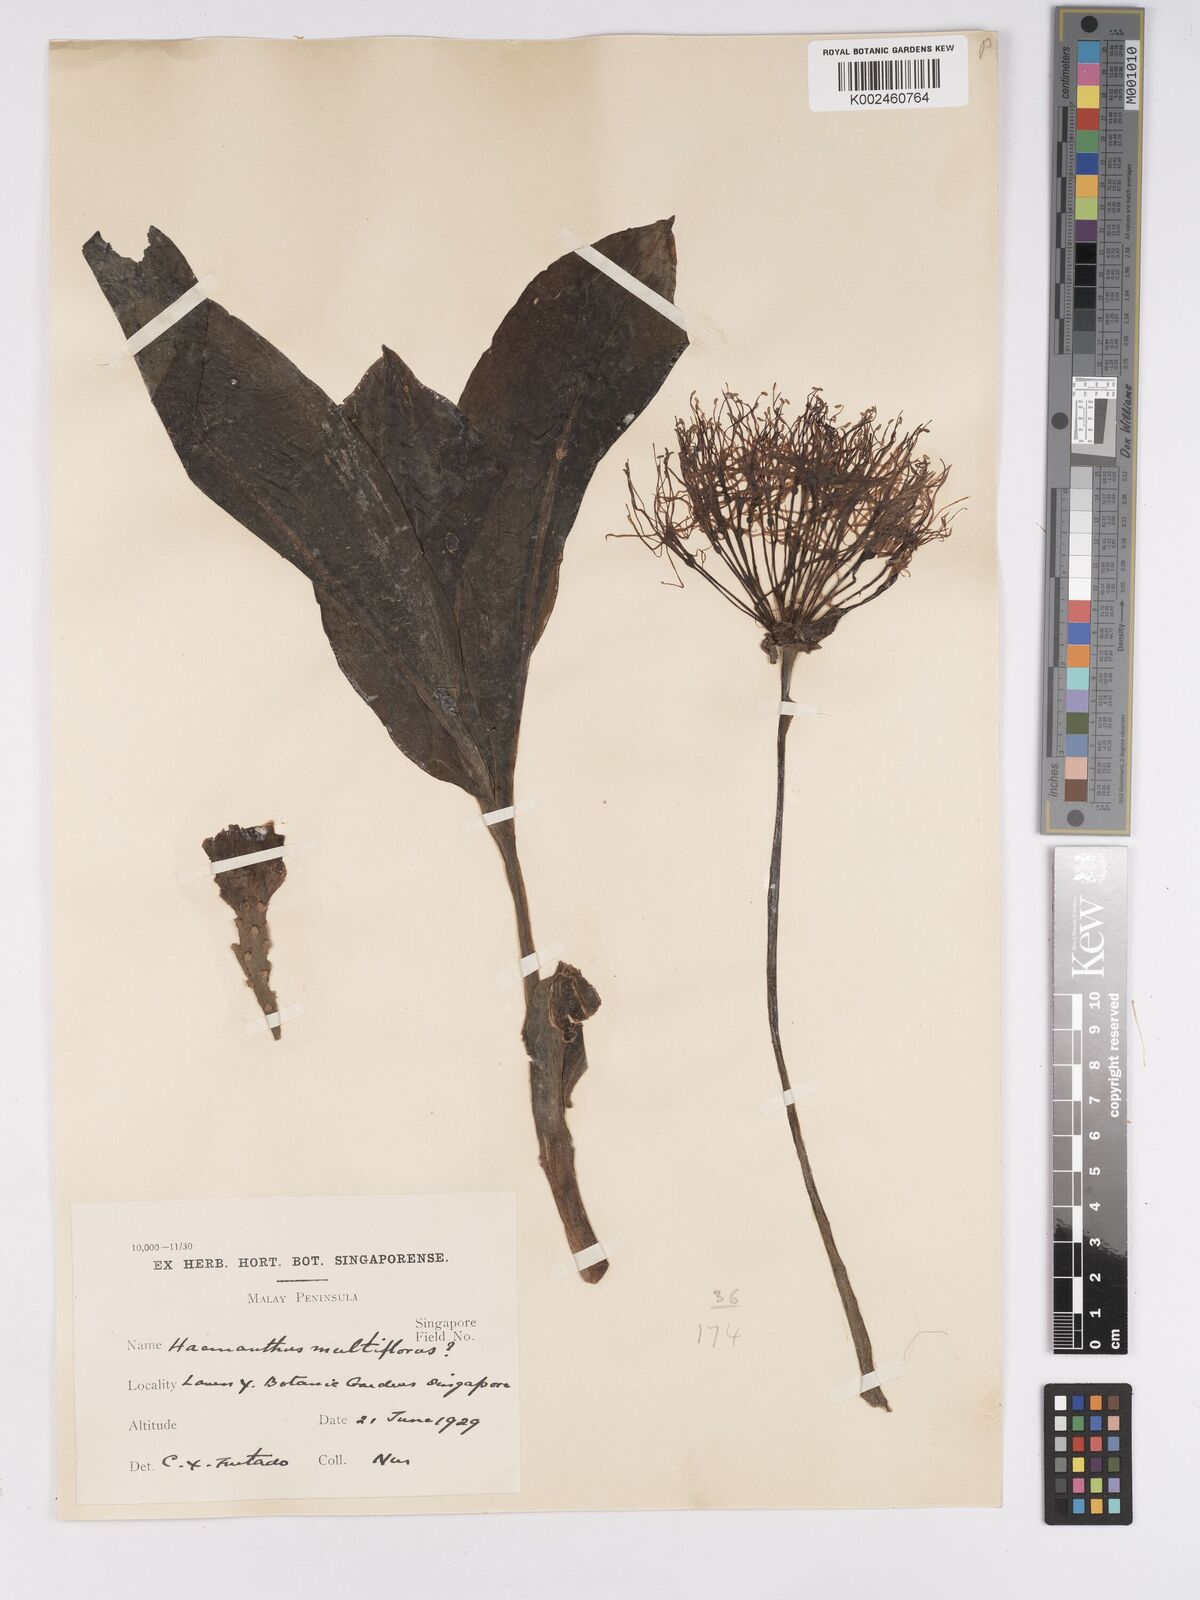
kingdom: Plantae
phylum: Tracheophyta
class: Liliopsida
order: Asparagales
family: Amaryllidaceae
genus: Scadoxus
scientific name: Scadoxus
